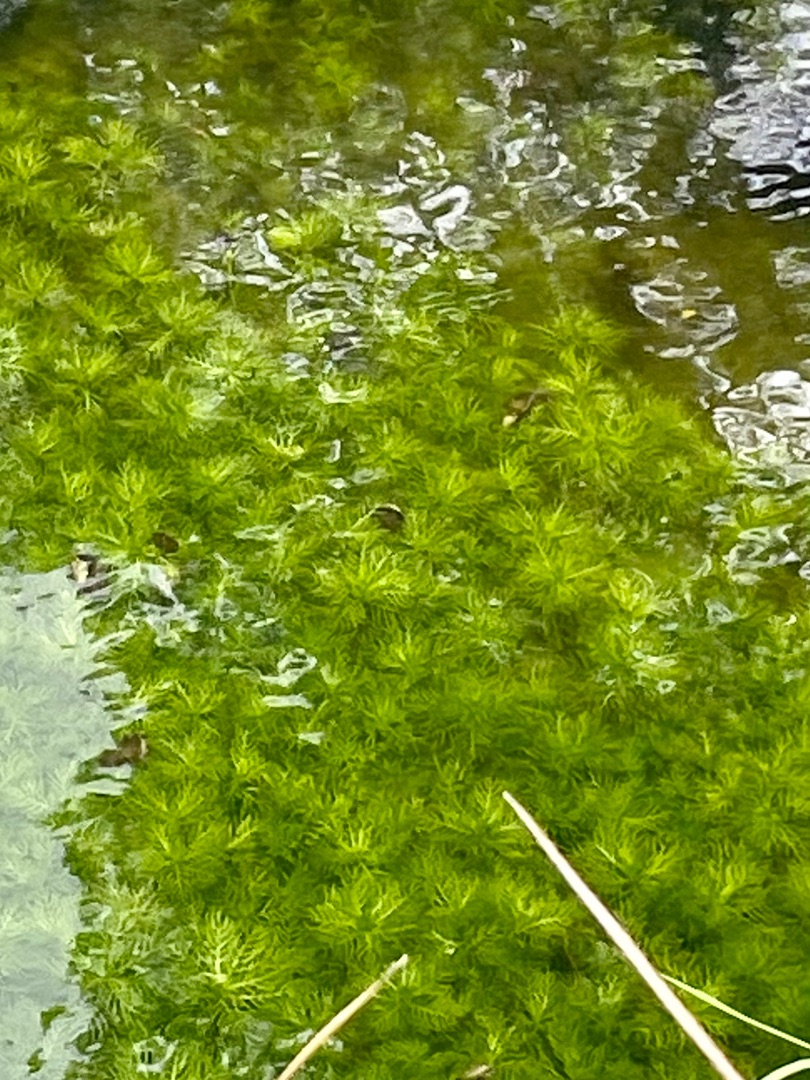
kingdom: Plantae
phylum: Tracheophyta
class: Magnoliopsida
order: Ericales
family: Primulaceae
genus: Hottonia
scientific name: Hottonia palustris
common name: Vandrøllike
